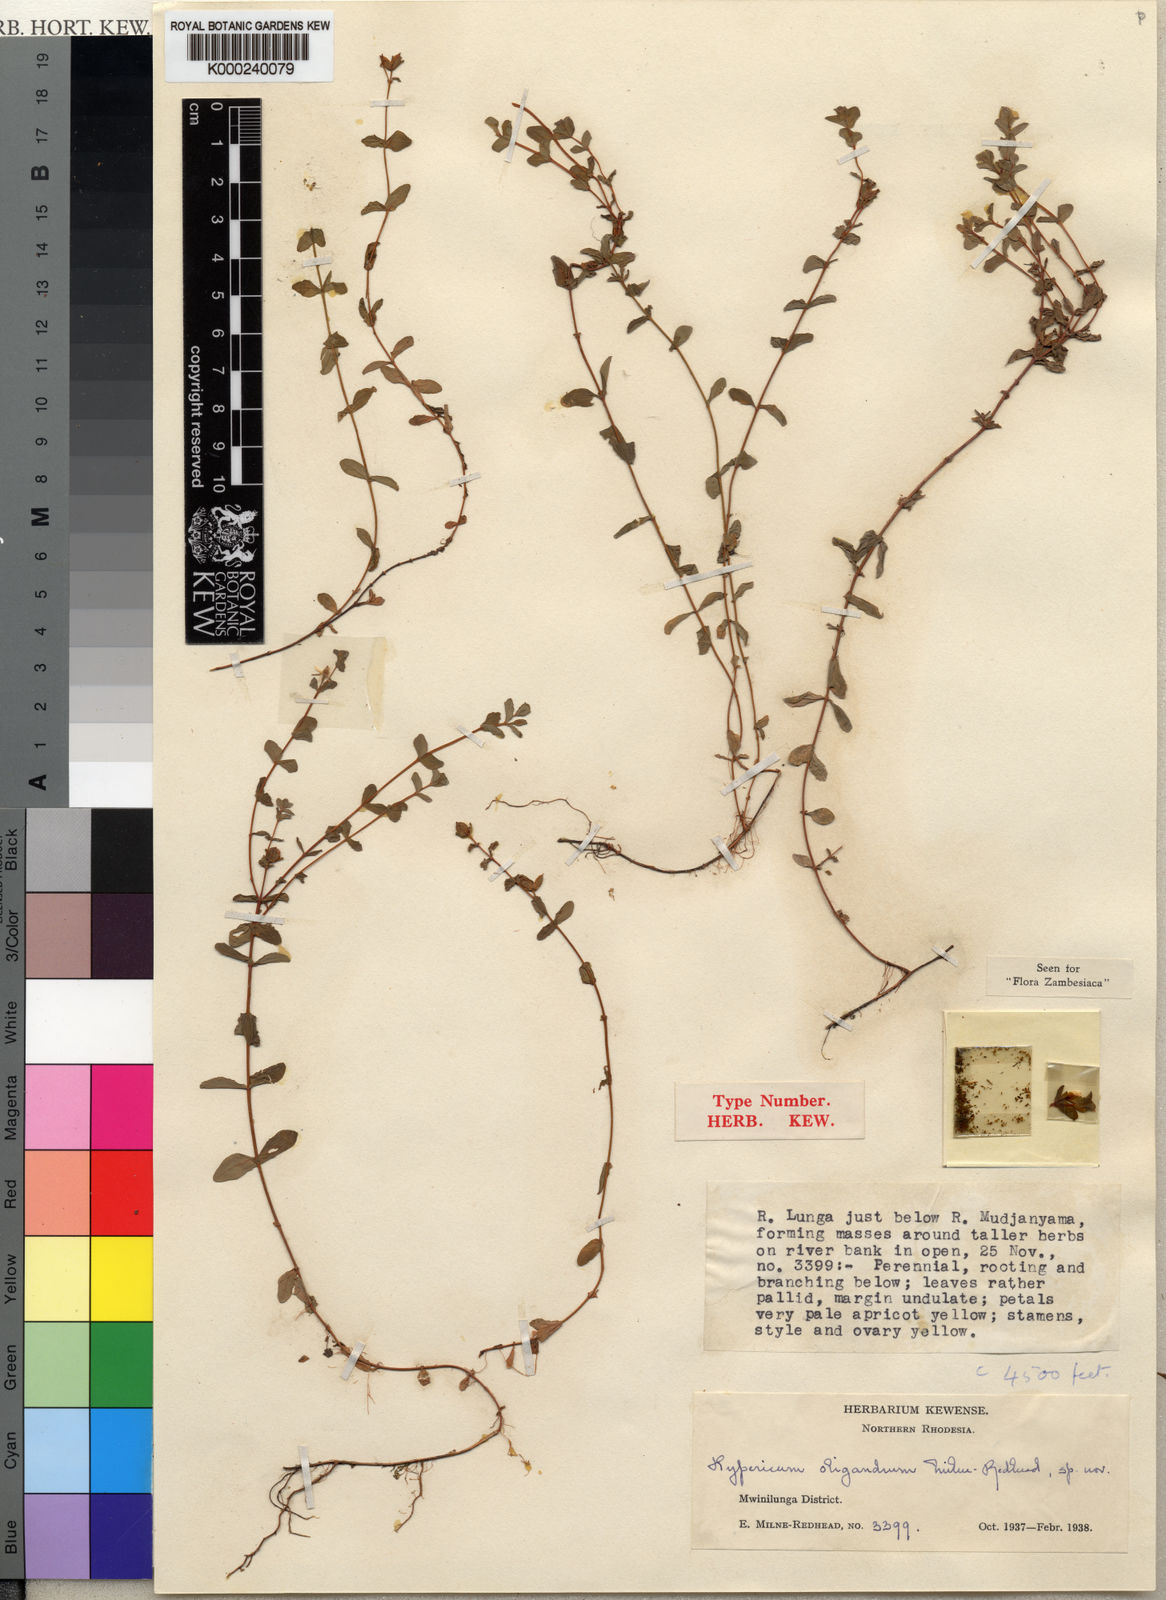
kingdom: Plantae
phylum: Tracheophyta
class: Magnoliopsida
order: Malpighiales
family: Hypericaceae
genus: Hypericum
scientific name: Hypericum oligandrum
